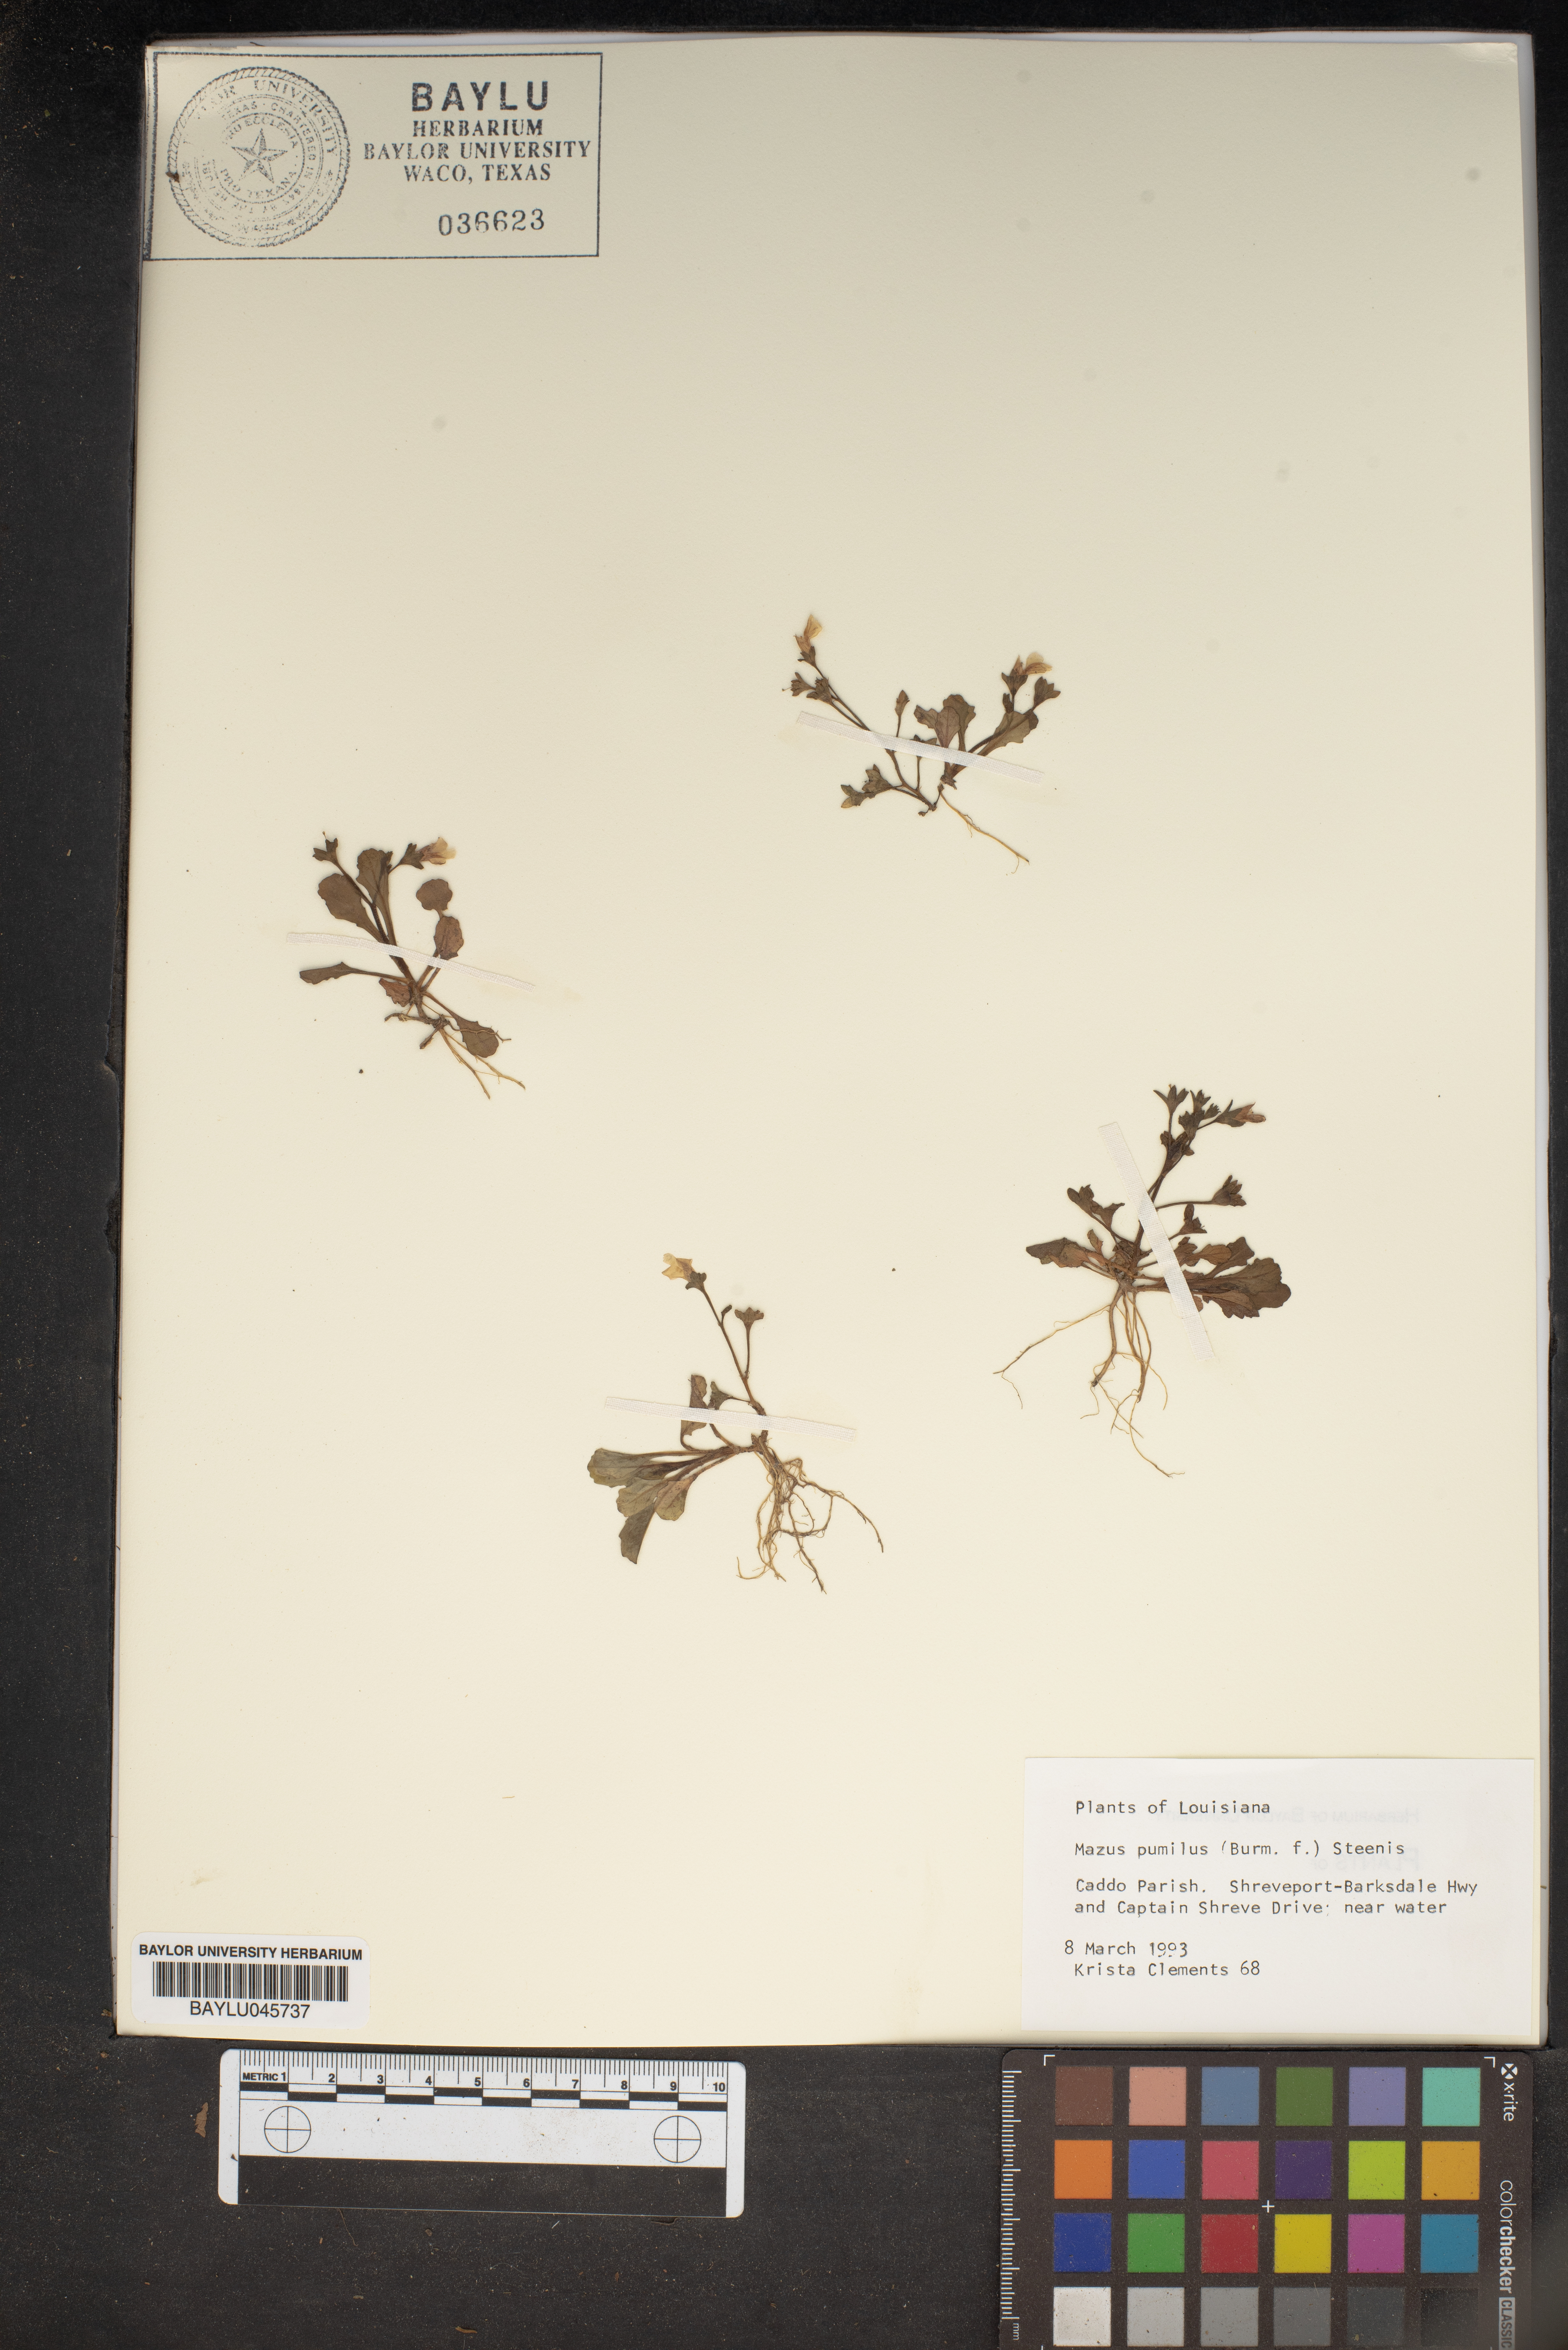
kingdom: Plantae
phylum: Tracheophyta
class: Magnoliopsida
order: Lamiales
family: Mazaceae
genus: Mazus
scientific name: Mazus pumilus
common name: Japanese mazus
